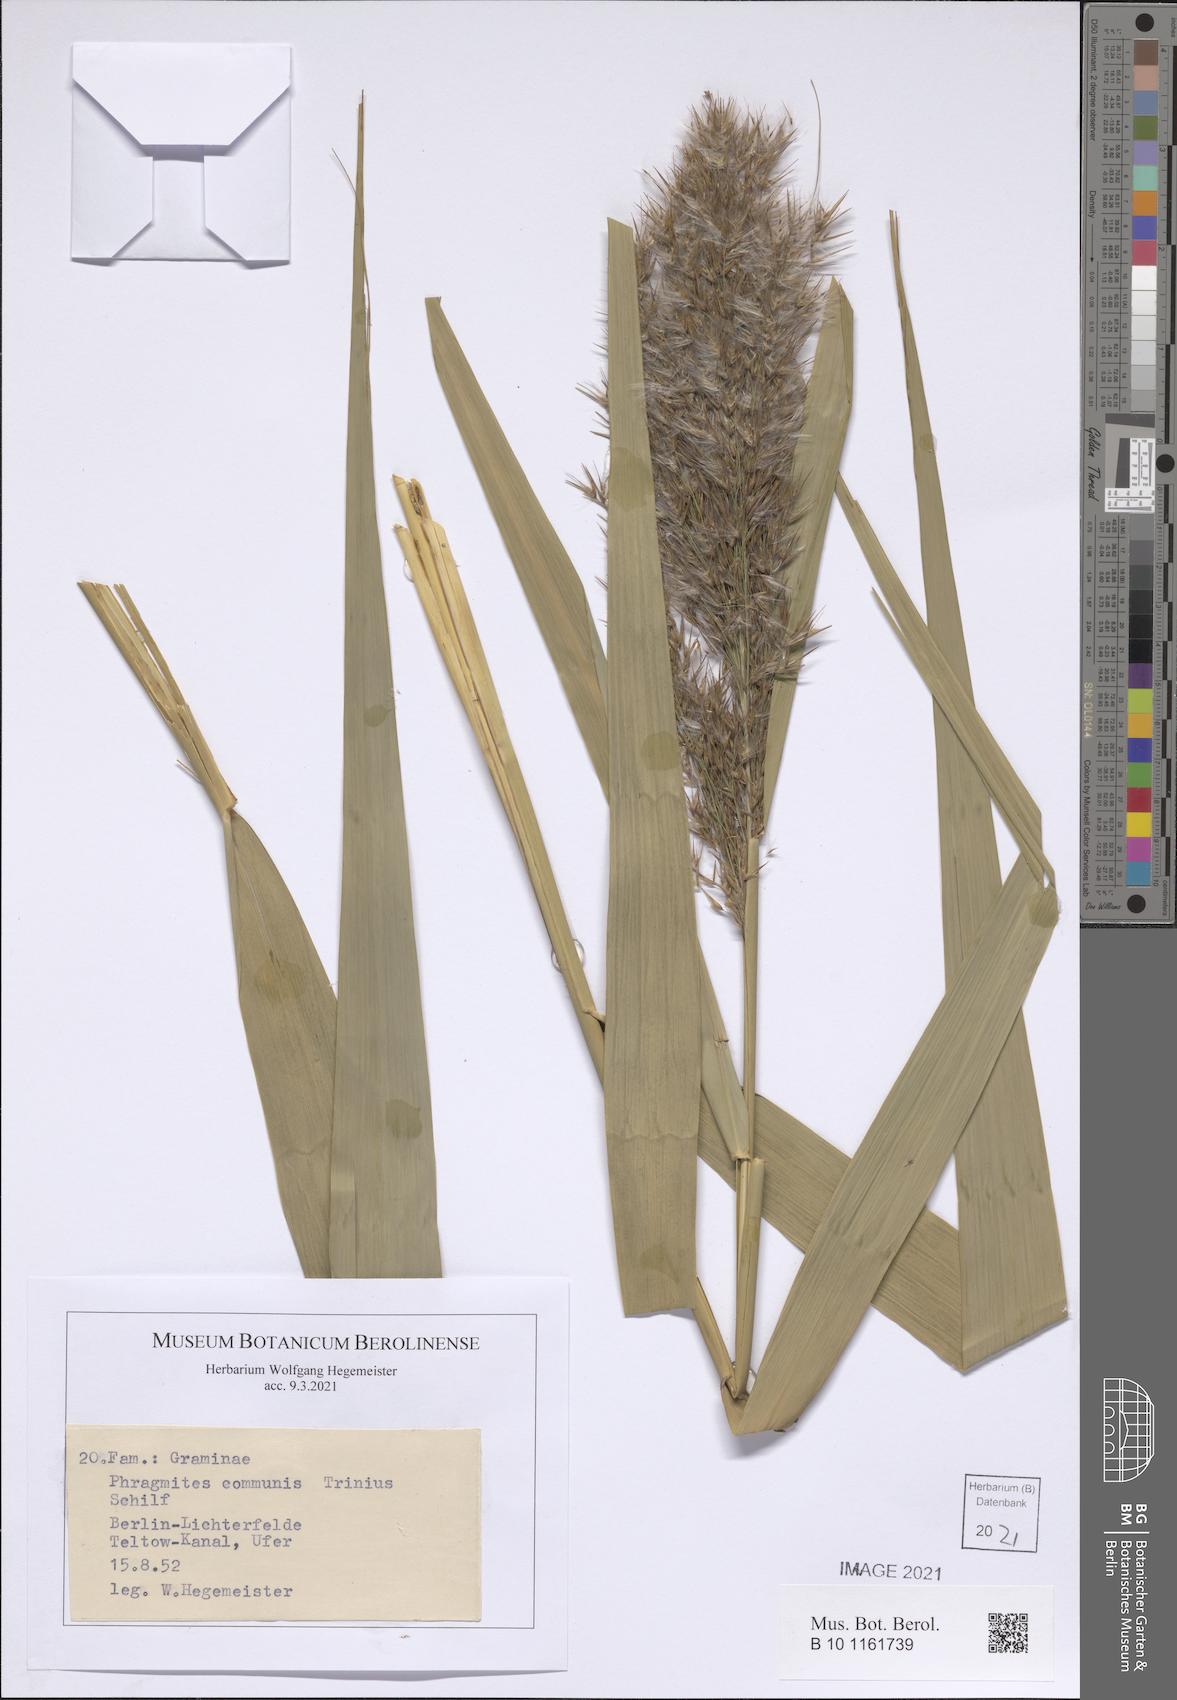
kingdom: Plantae
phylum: Tracheophyta
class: Liliopsida
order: Poales
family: Poaceae
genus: Phragmites
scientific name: Phragmites australis
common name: Common reed
